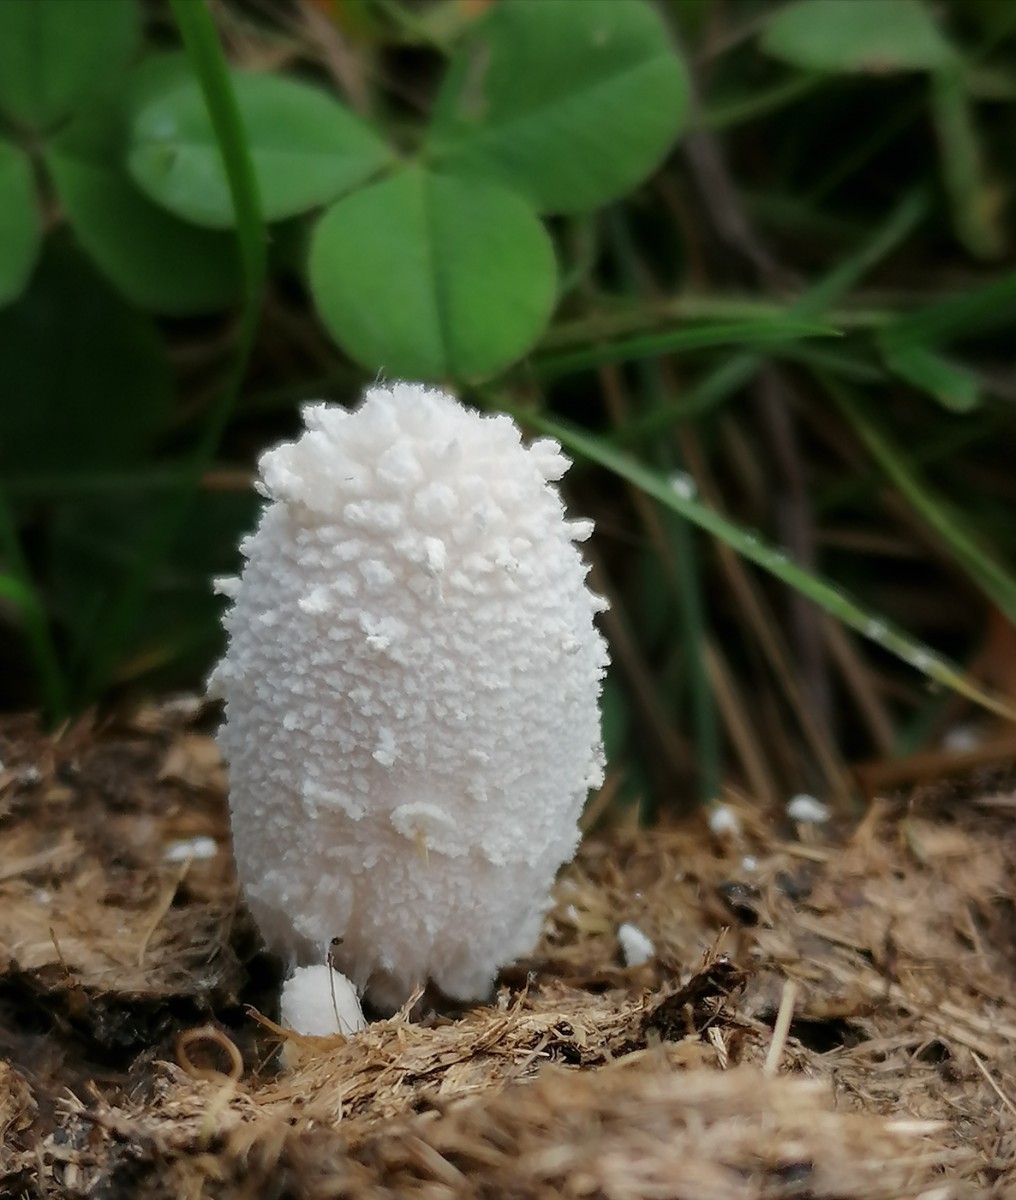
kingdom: Fungi
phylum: Basidiomycota
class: Agaricomycetes
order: Agaricales
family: Psathyrellaceae
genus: Coprinopsis
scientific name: Coprinopsis nivea
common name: snehvid blækhat
